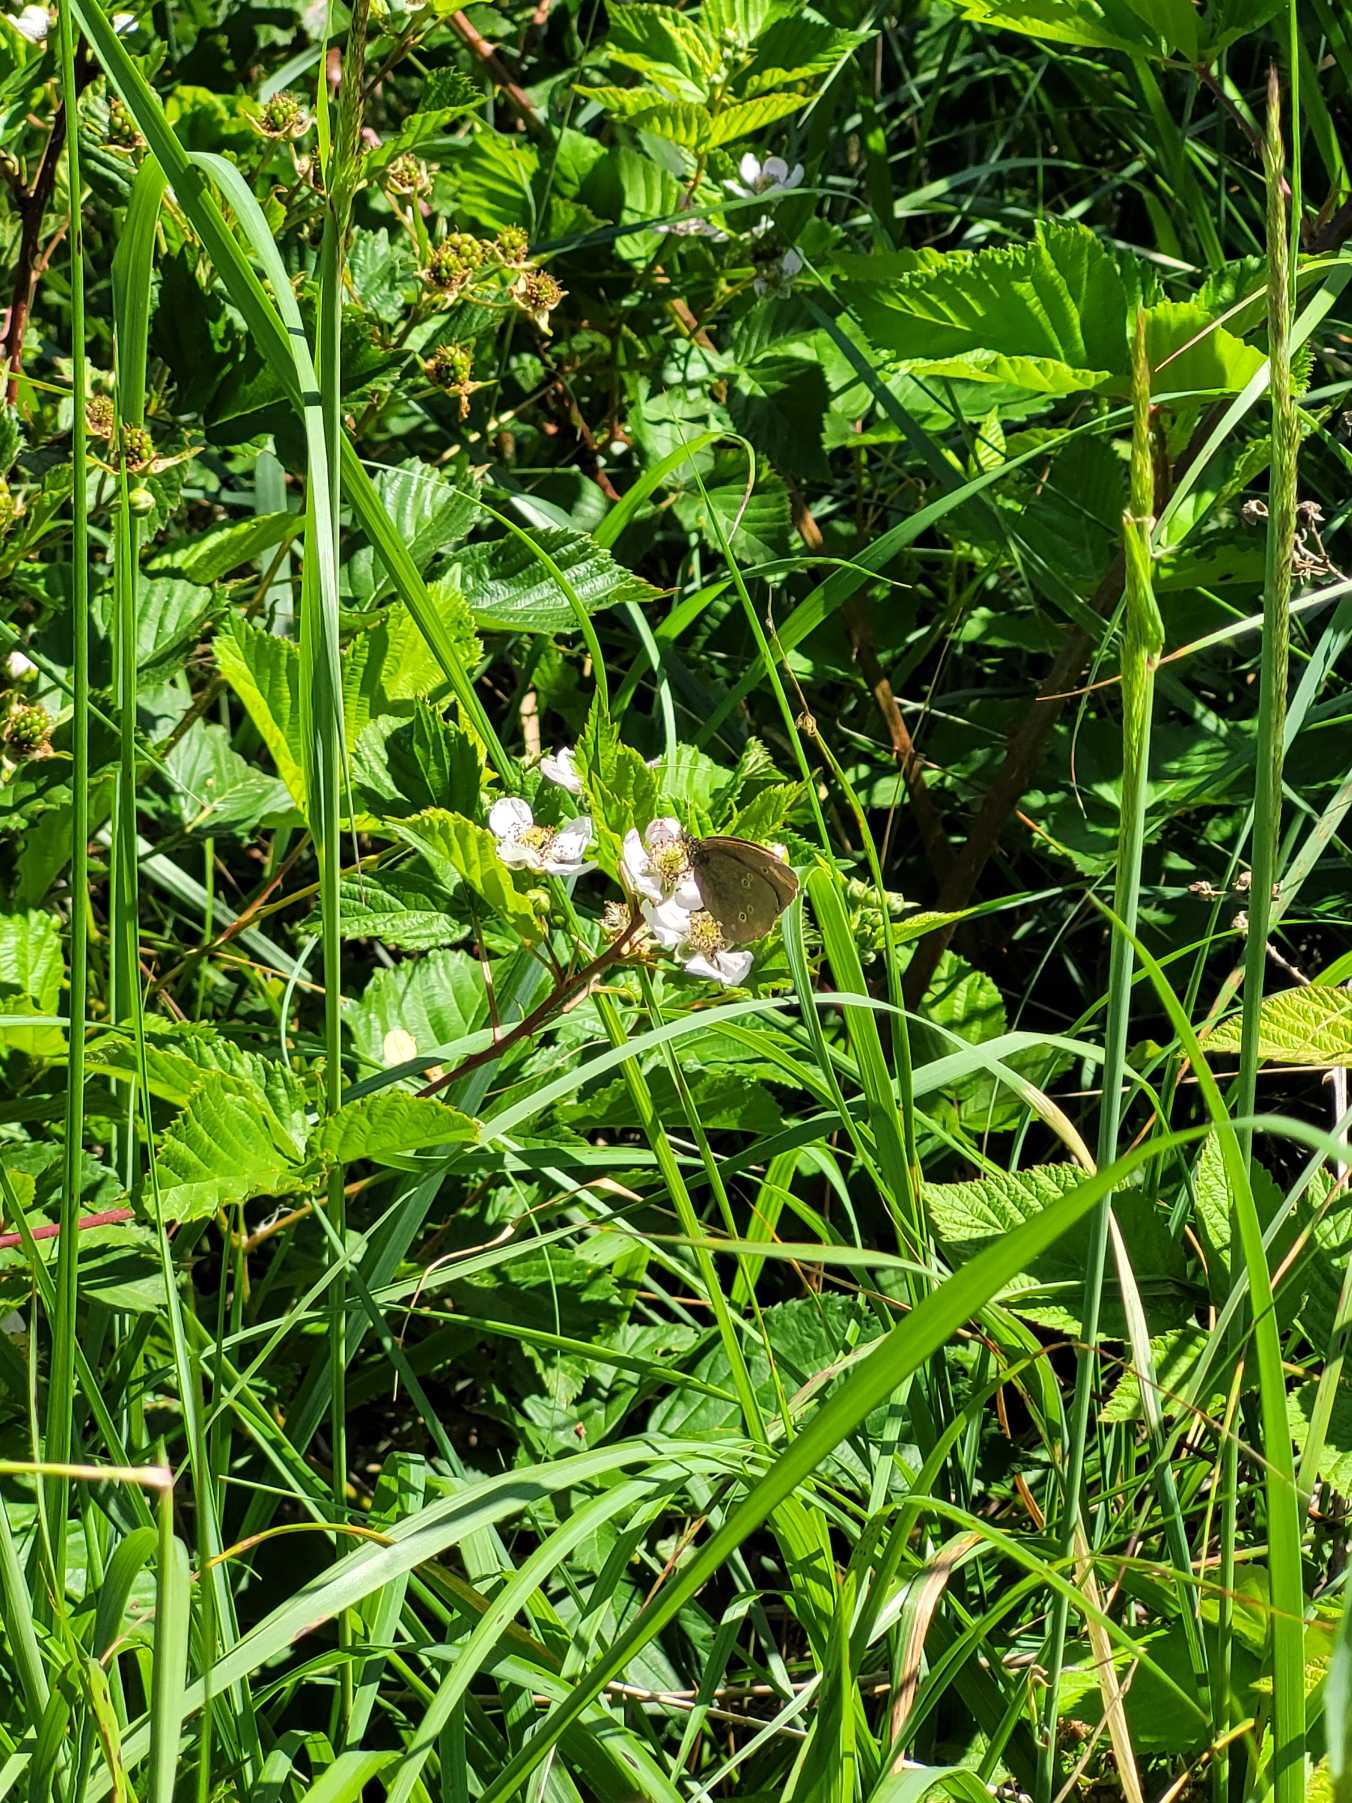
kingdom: Animalia
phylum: Arthropoda
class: Insecta
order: Lepidoptera
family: Nymphalidae
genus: Aphantopus
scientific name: Aphantopus hyperantus
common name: Engrandøje
